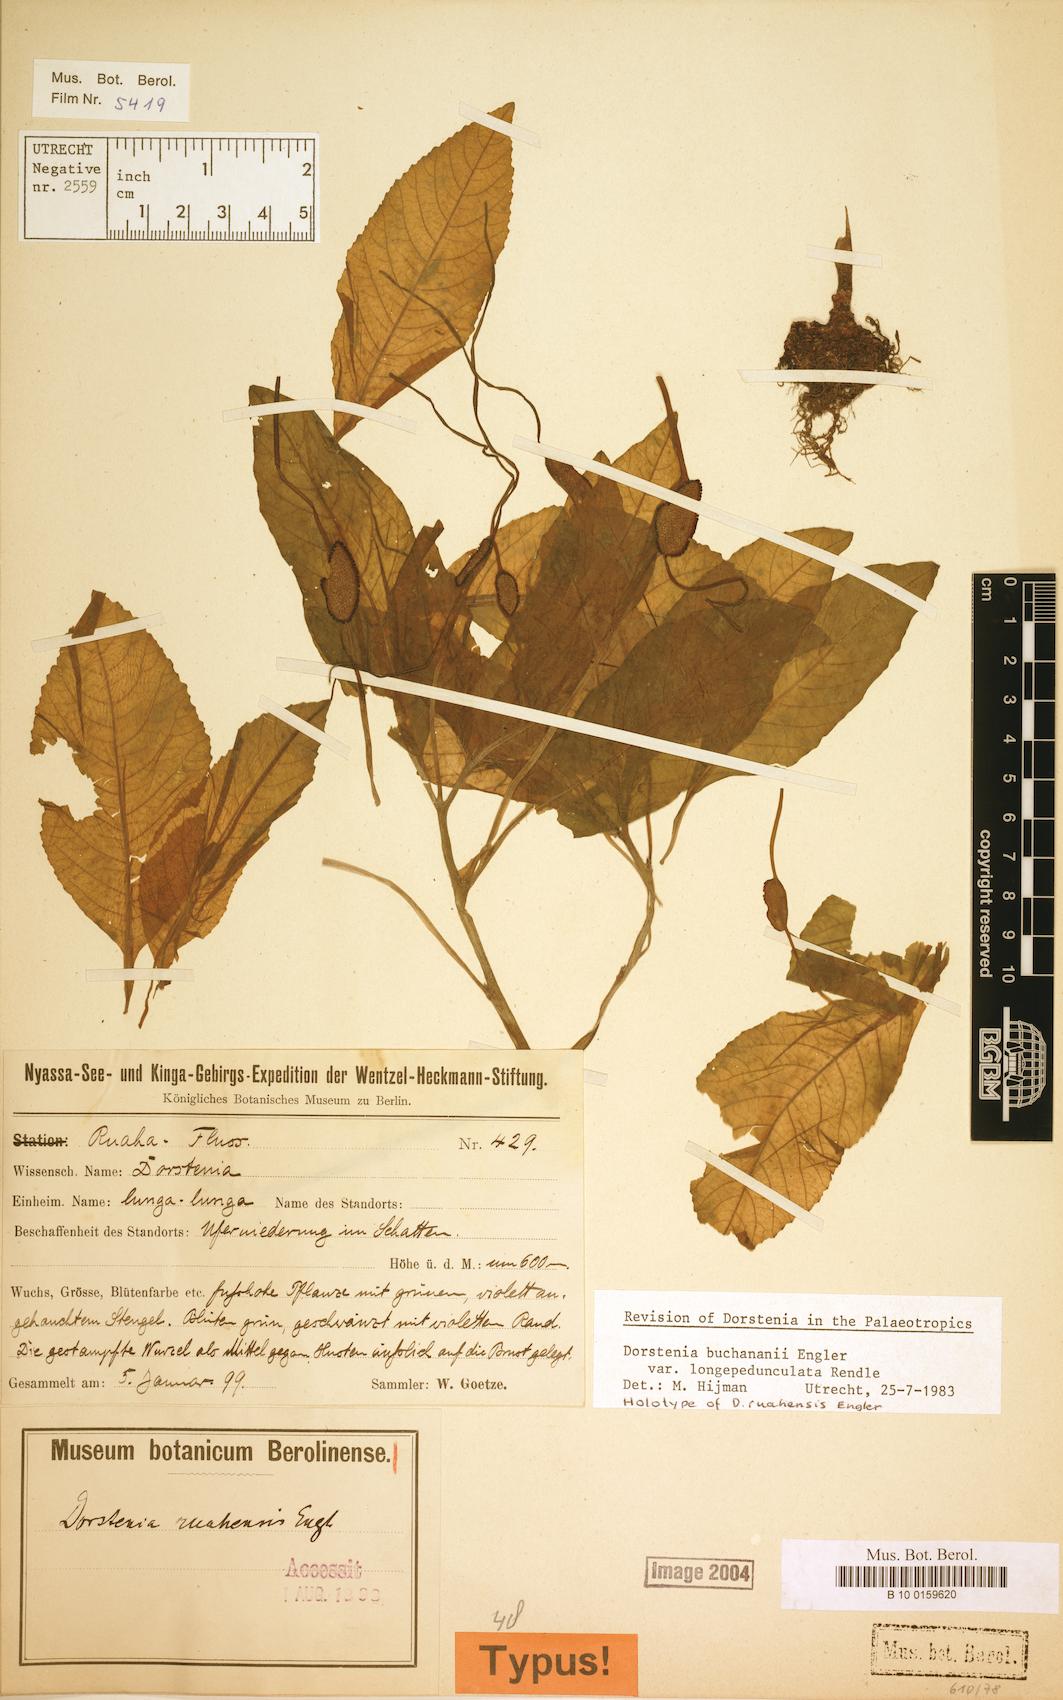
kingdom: Plantae
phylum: Tracheophyta
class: Magnoliopsida
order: Rosales
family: Moraceae
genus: Dorstenia
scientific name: Dorstenia buchananii
